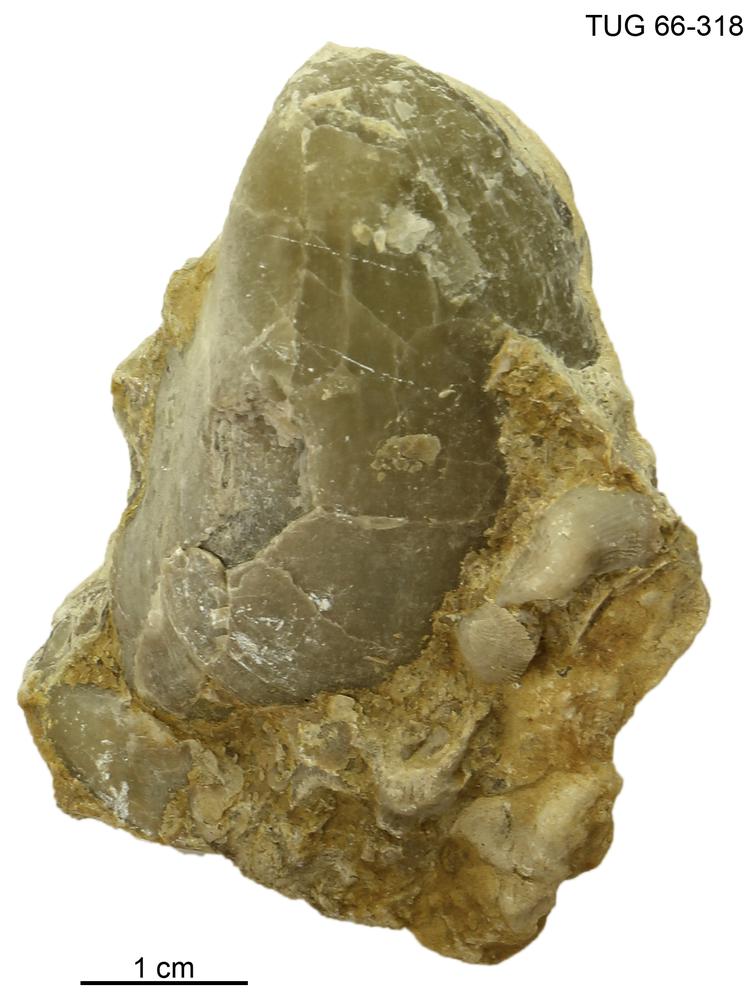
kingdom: Animalia
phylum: Brachiopoda
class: Rhynchonellata
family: Pentameridae
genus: Pentamerus
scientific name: Pentamerus
